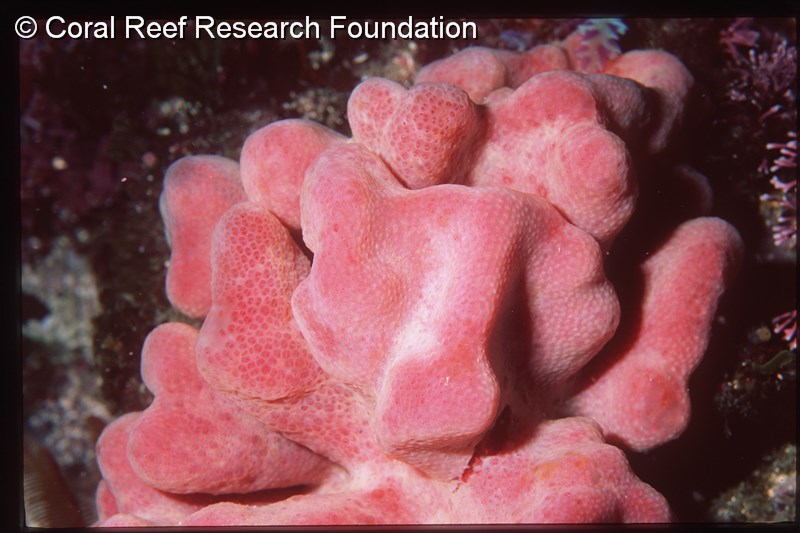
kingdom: Animalia
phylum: Chordata
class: Ascidiacea
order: Aplousobranchia
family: Pseudodistomidae
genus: Pseudodistoma
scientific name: Pseudodistoma
